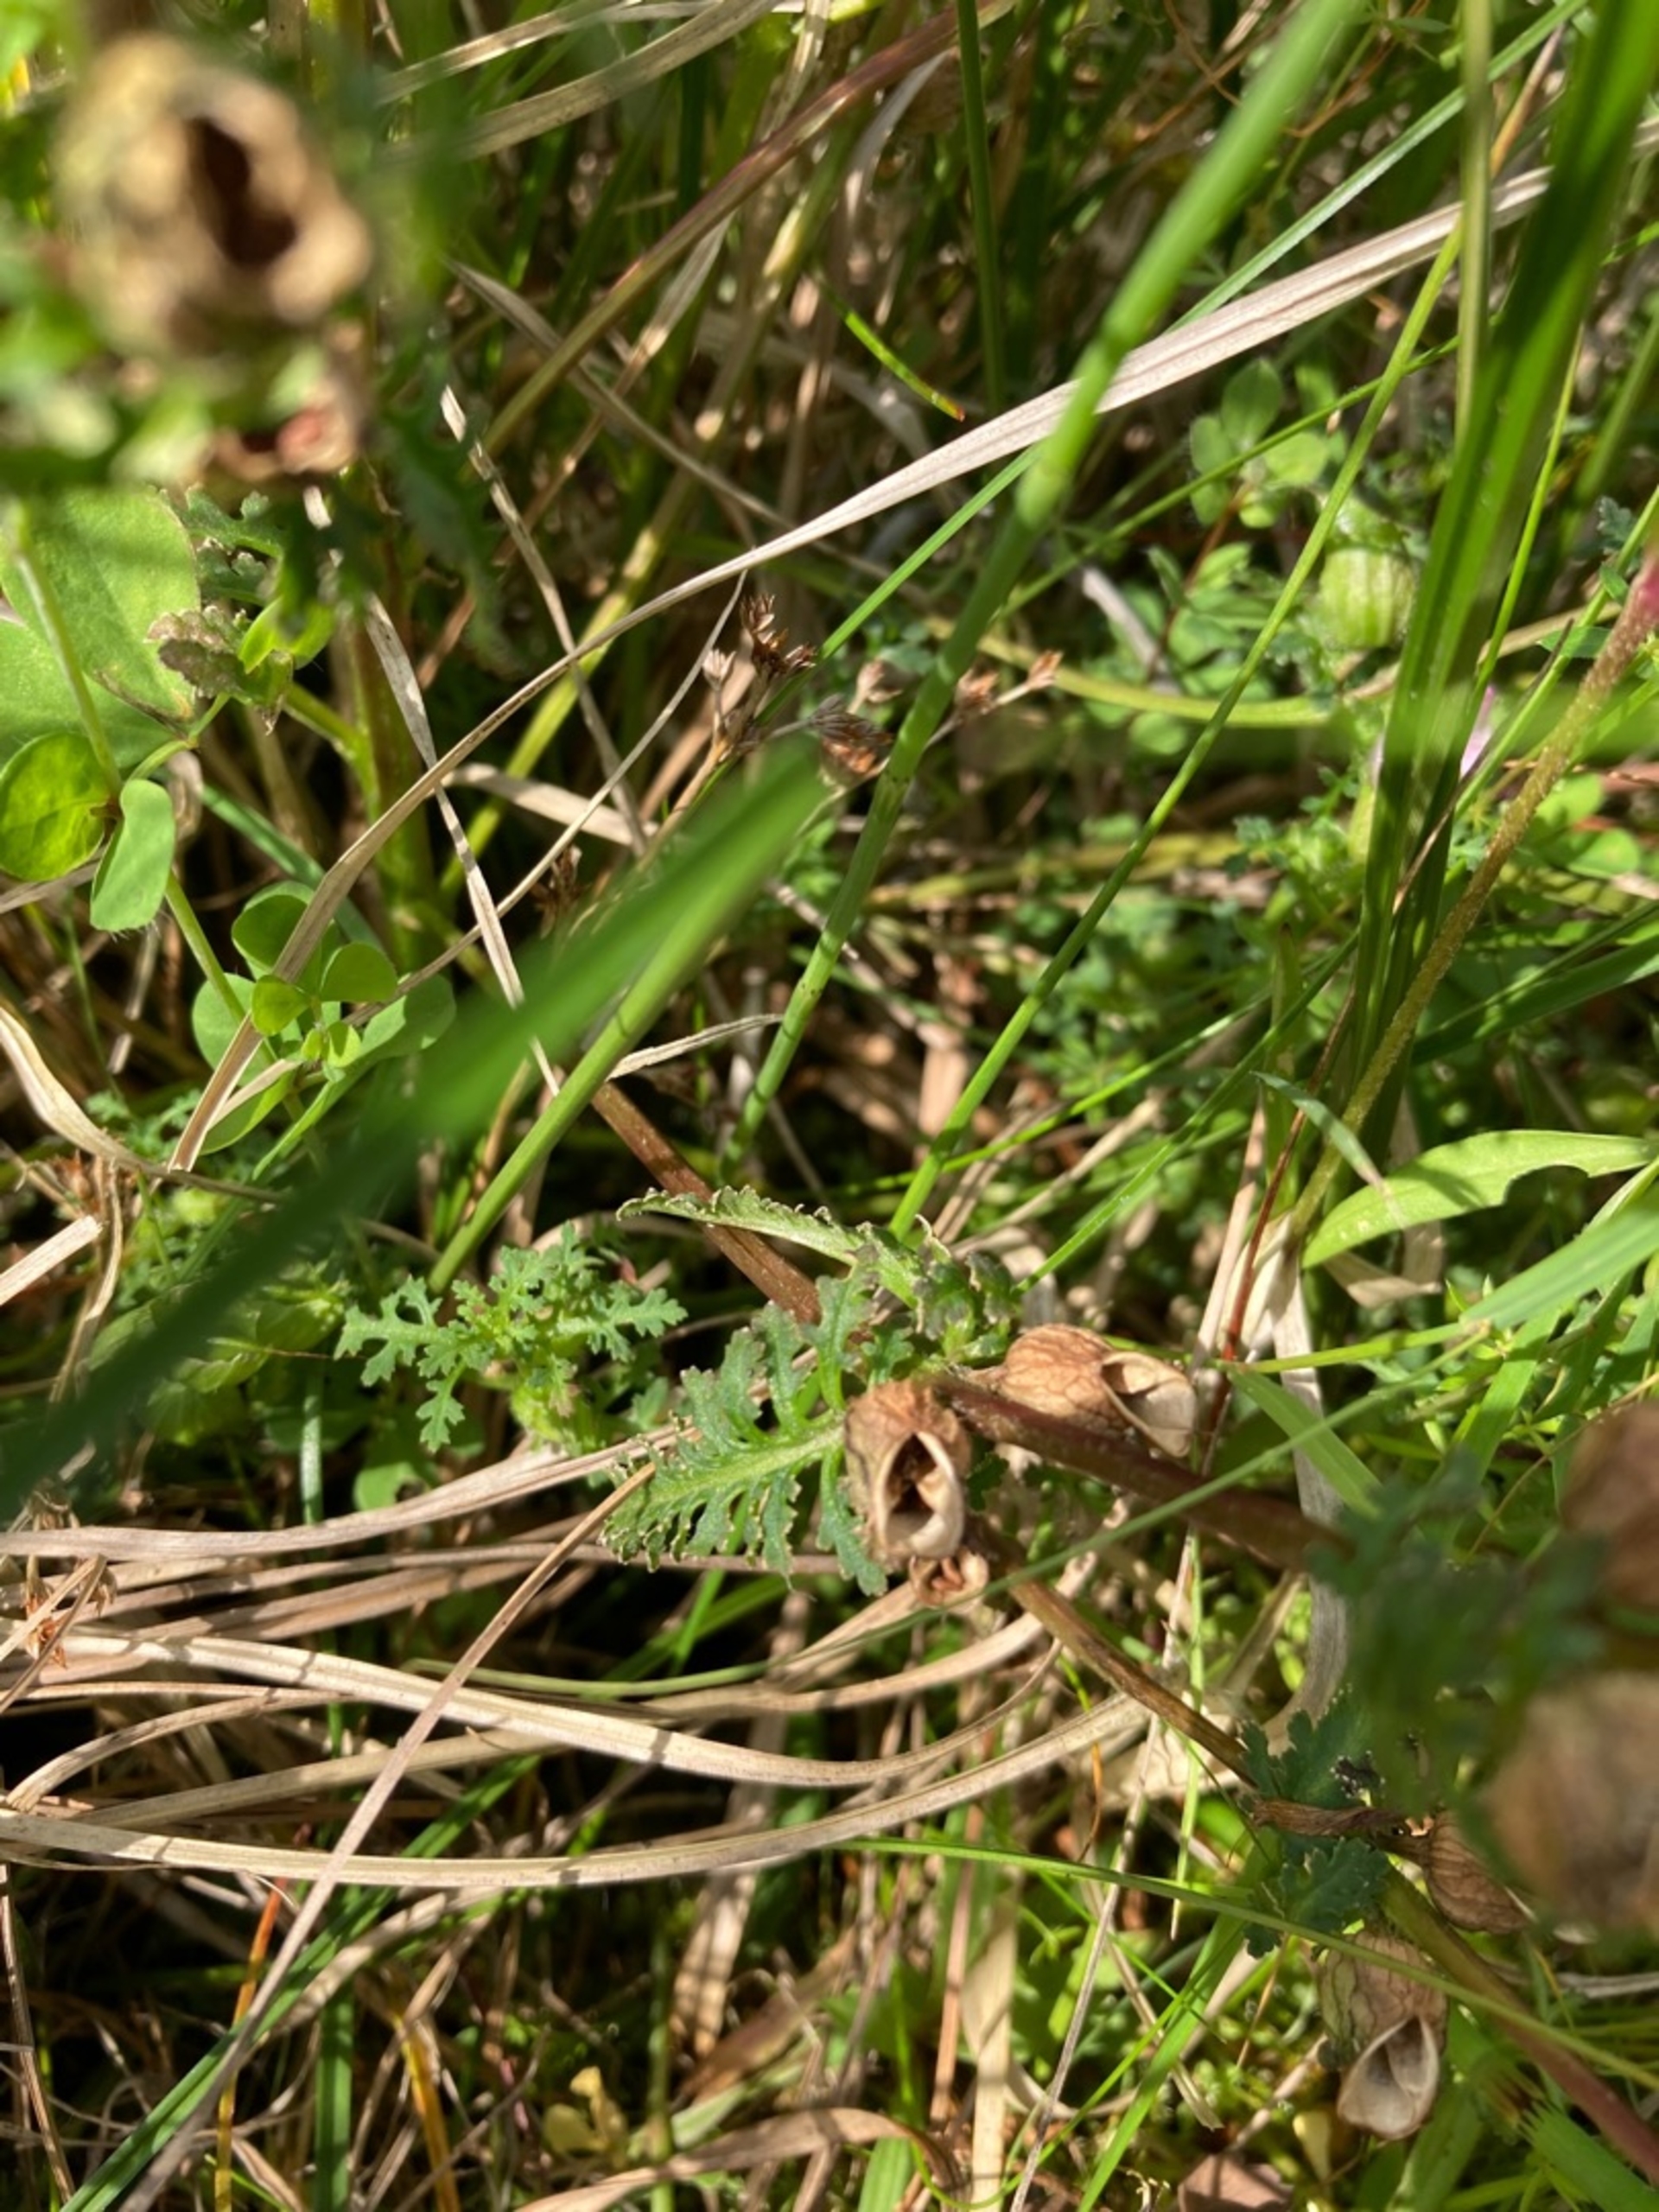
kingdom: Plantae
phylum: Tracheophyta
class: Magnoliopsida
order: Lamiales
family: Orobanchaceae
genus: Pedicularis
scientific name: Pedicularis palustris
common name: Eng-troldurt
